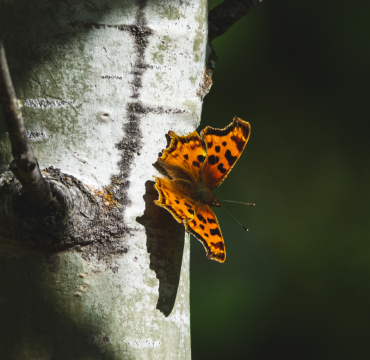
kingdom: Animalia
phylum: Arthropoda
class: Insecta
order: Lepidoptera
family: Nymphalidae
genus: Polygonia
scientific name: Polygonia satyrus
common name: Satyr Comma
